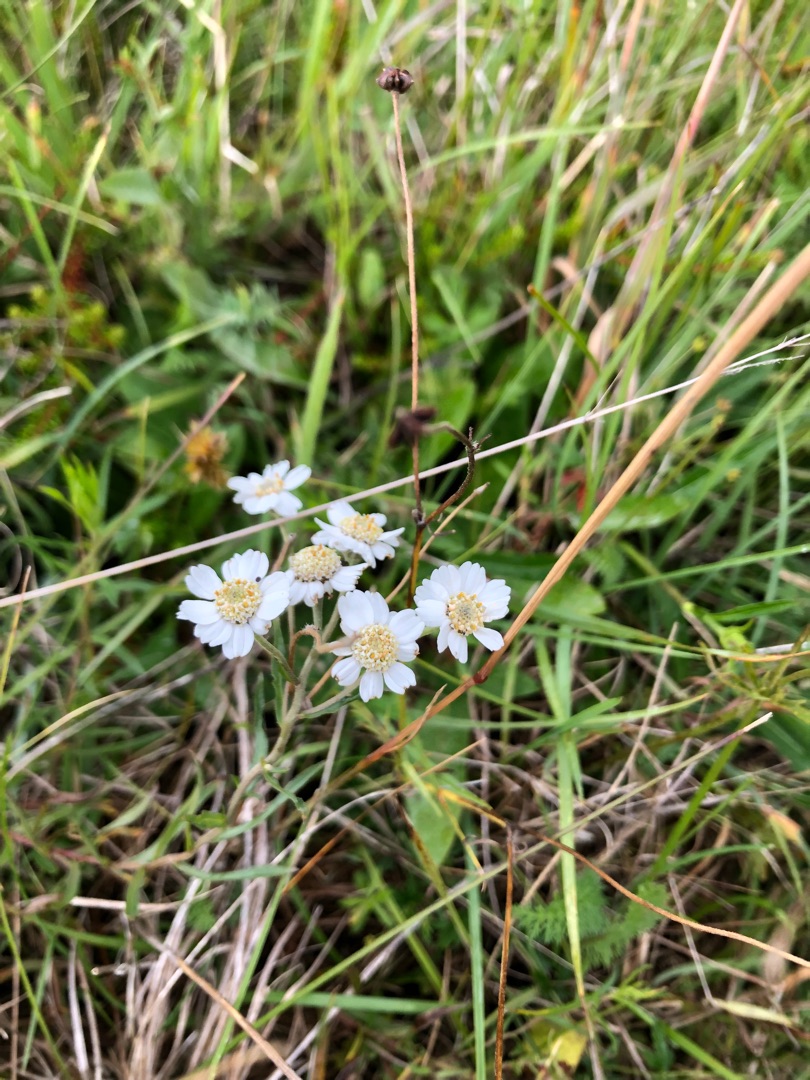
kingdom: Plantae
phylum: Tracheophyta
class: Magnoliopsida
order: Asterales
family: Asteraceae
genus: Achillea
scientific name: Achillea ptarmica
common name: Nyse-røllike
